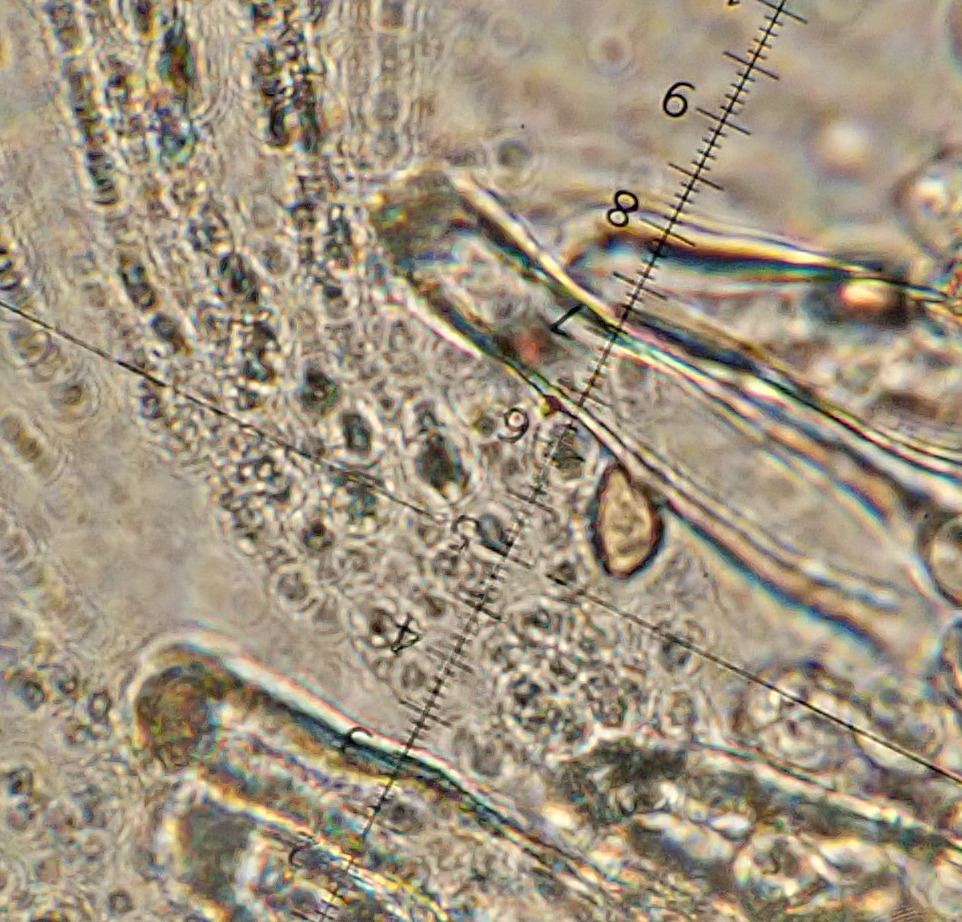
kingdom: Fungi
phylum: Basidiomycota
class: Agaricomycetes
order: Agaricales
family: Inocybaceae
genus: Inocybe
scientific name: Inocybe
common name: trævlhat
